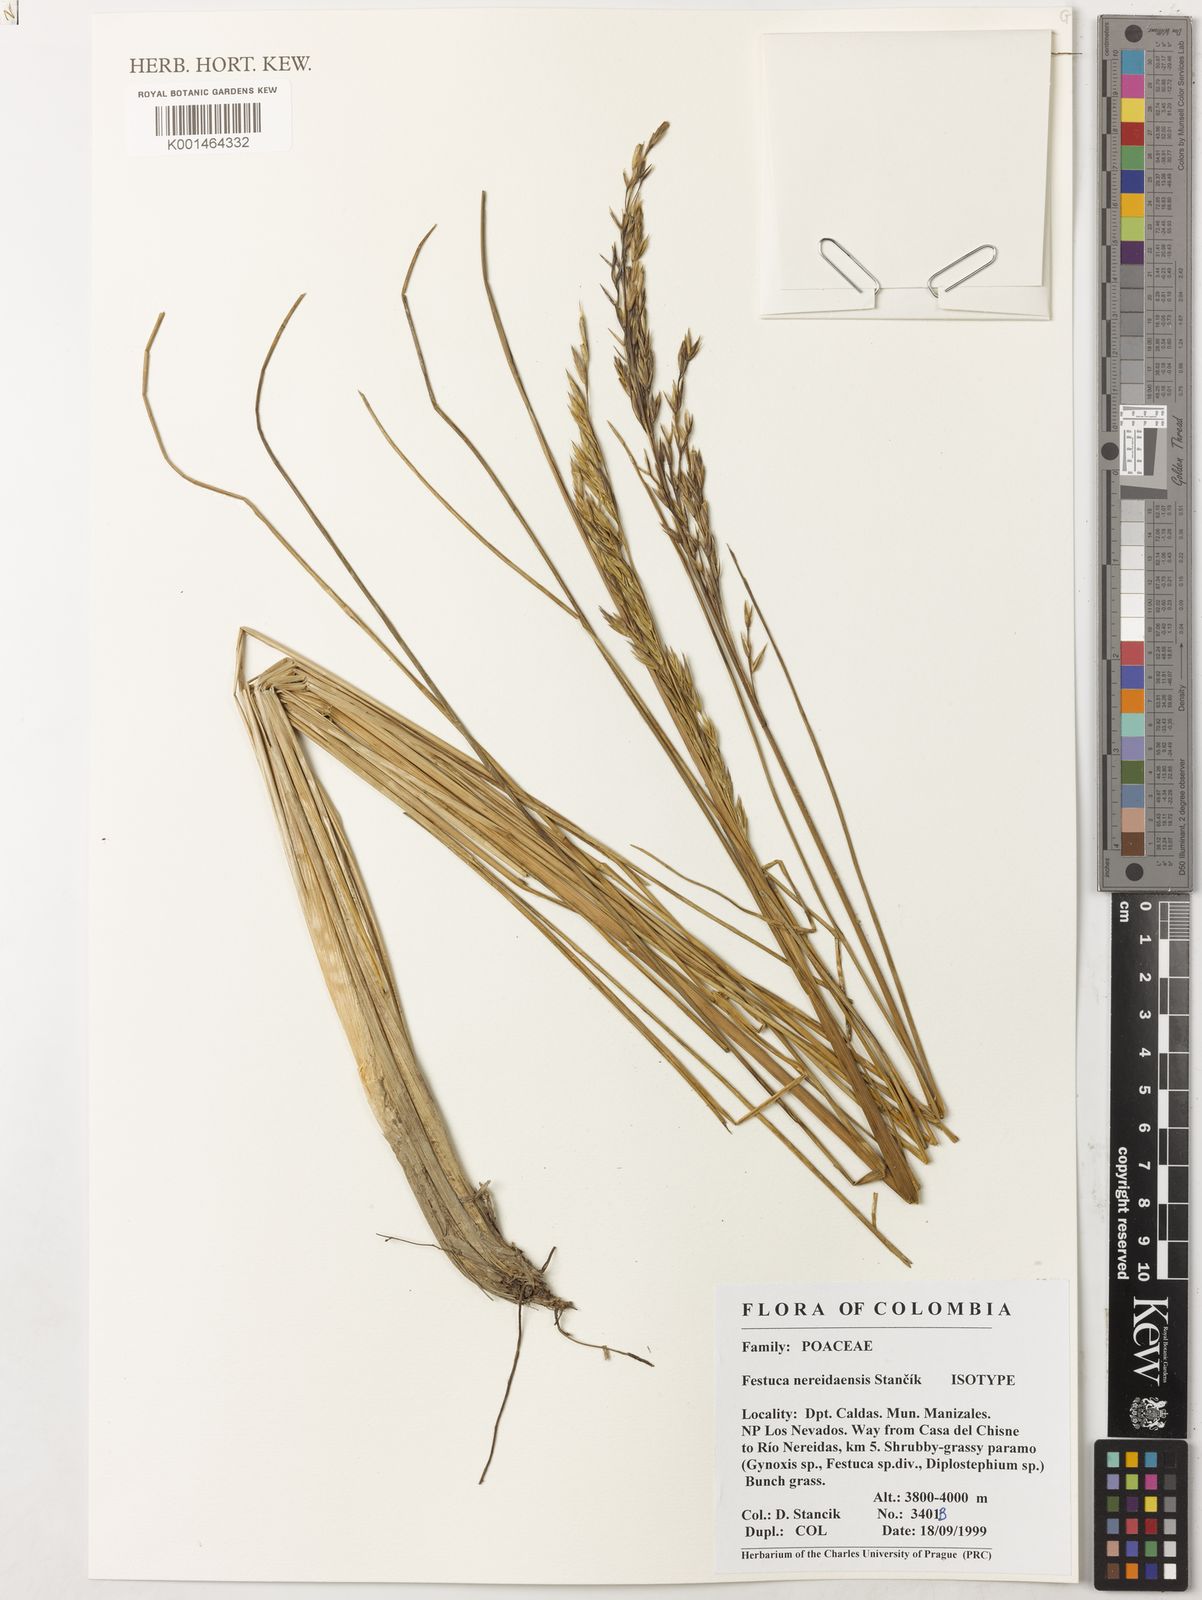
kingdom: Plantae
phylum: Tracheophyta
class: Liliopsida
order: Poales
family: Poaceae
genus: Festuca
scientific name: Festuca
